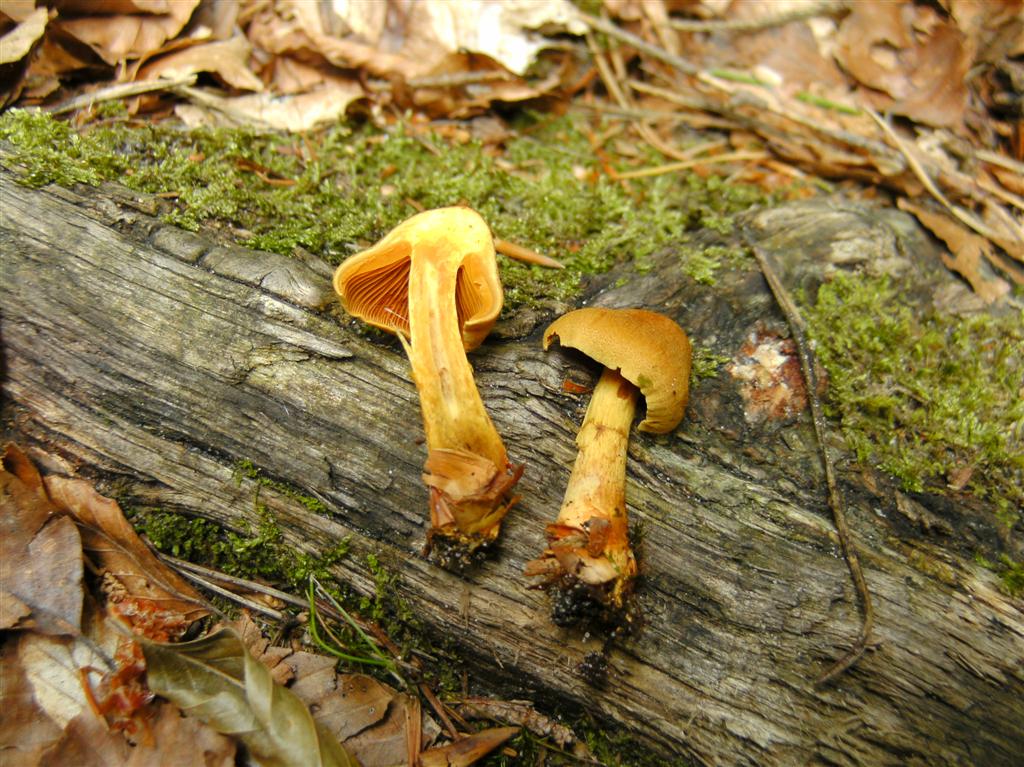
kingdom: Fungi
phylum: Basidiomycota
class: Agaricomycetes
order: Agaricales
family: Cortinariaceae
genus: Cortinarius
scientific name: Cortinarius
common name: cinnoberbladet slørhat
